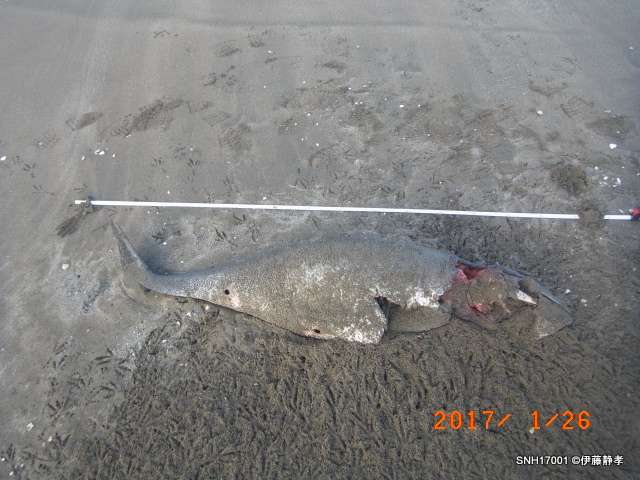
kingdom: Animalia
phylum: Chordata
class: Mammalia
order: Cetacea
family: Phocoenidae
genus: Phocoena
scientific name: Phocoena phocoena
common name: Harbour porpoise
